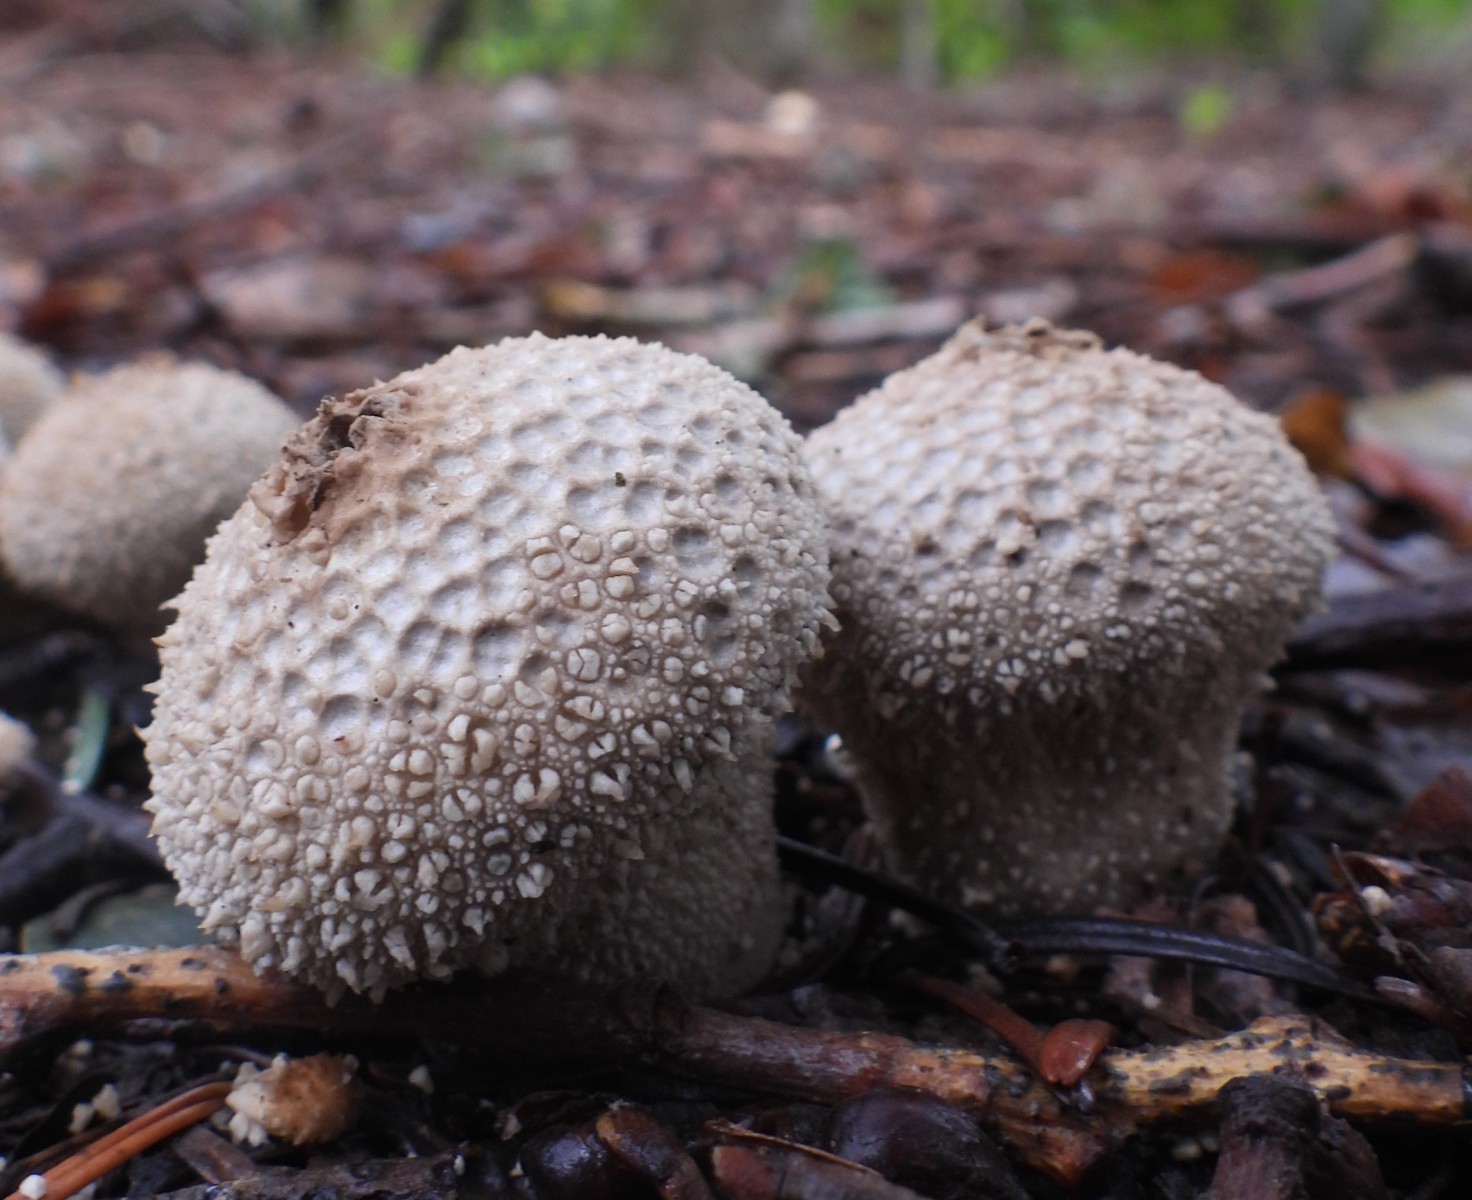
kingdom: Fungi
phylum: Basidiomycota
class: Agaricomycetes
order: Agaricales
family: Lycoperdaceae
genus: Lycoperdon
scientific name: Lycoperdon perlatum
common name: krystal-støvbold
